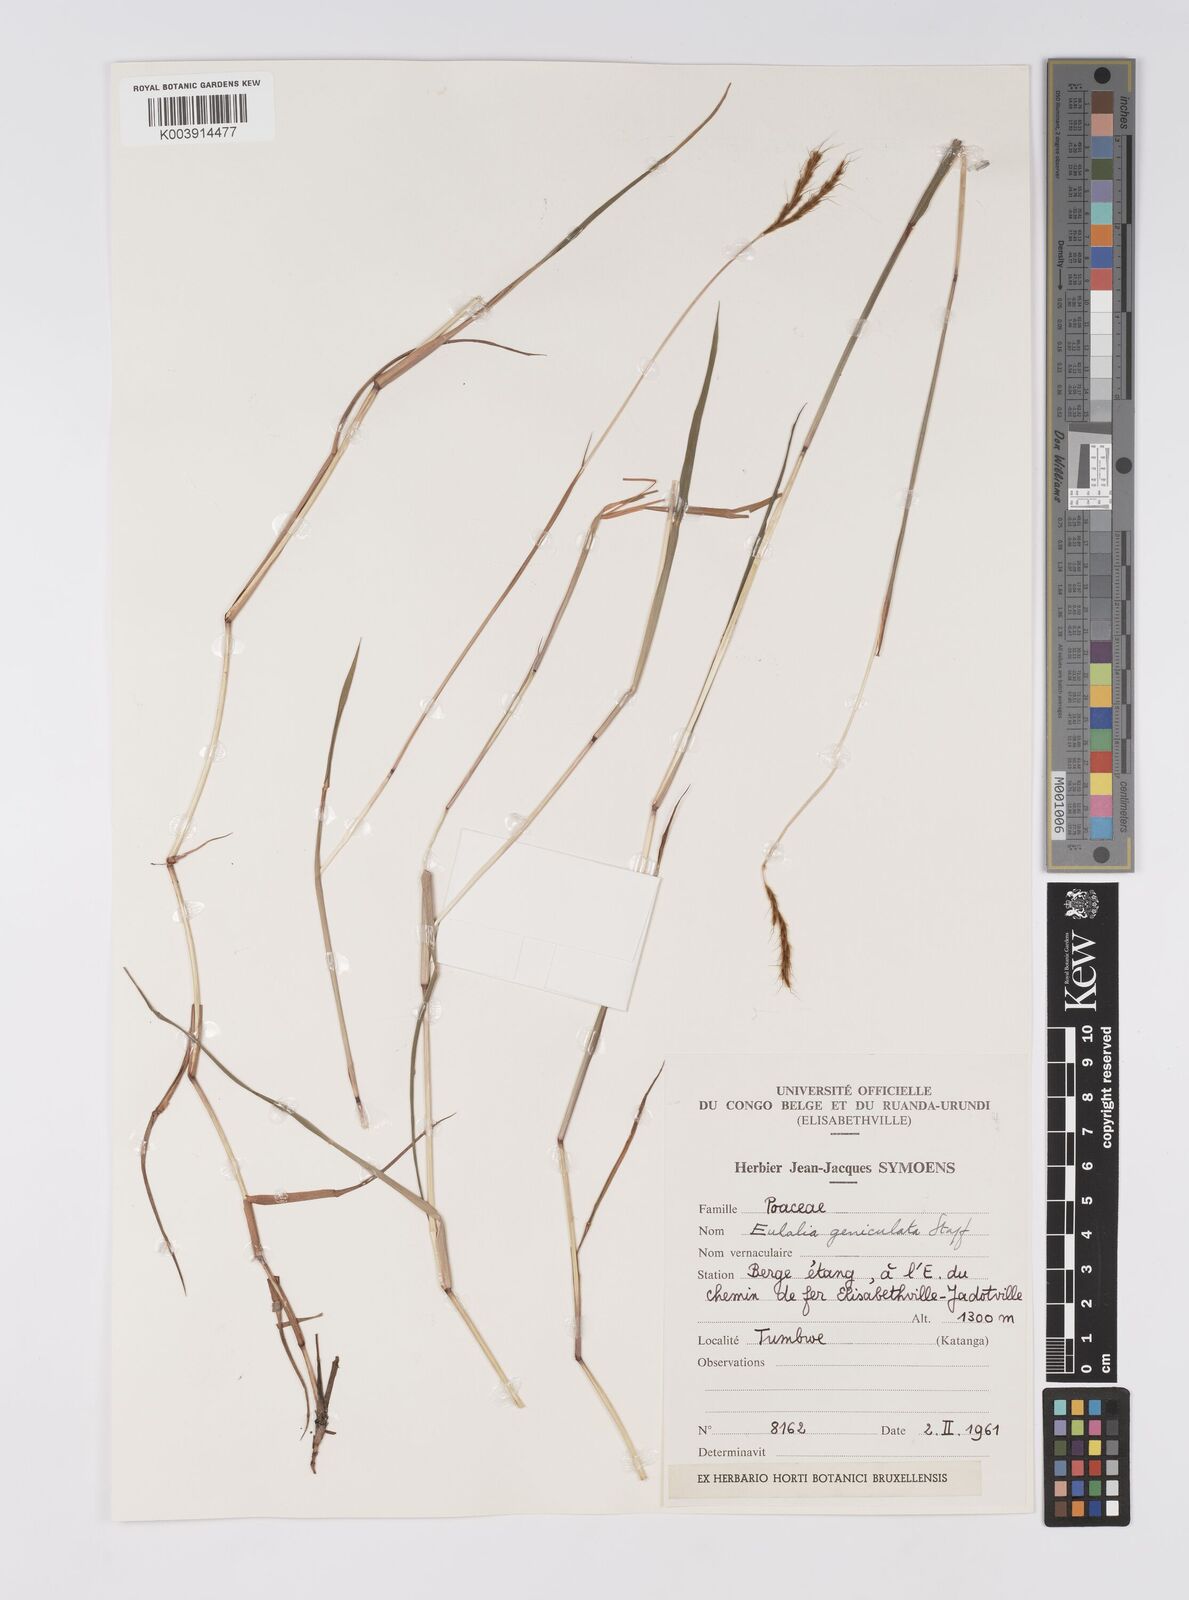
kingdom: Plantae
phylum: Tracheophyta
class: Liliopsida
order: Poales
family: Poaceae
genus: Eulalia
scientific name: Eulalia aurea
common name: Silky browntop
